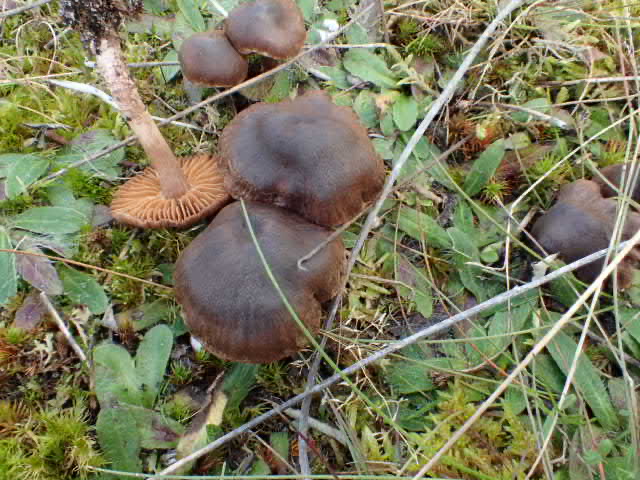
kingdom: Fungi
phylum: Basidiomycota
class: Agaricomycetes
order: Agaricales
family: Cortinariaceae
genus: Cortinarius
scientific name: Cortinarius
